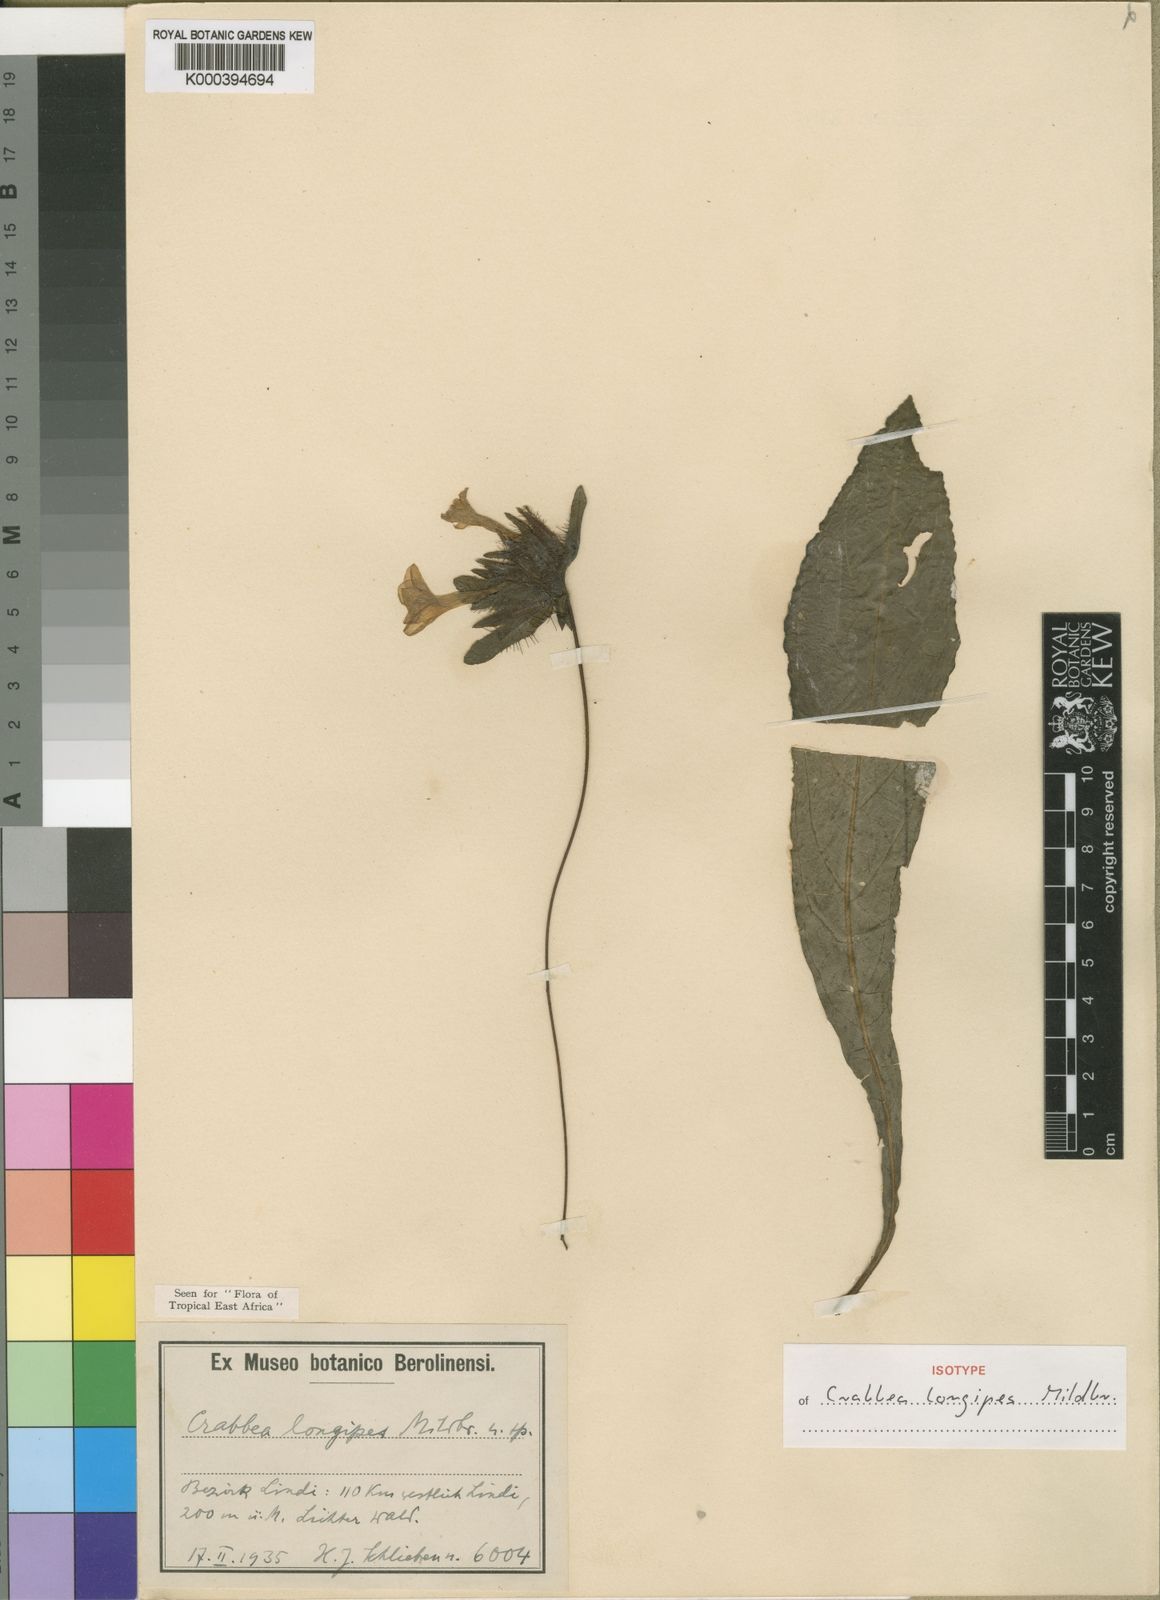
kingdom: Plantae
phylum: Tracheophyta
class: Magnoliopsida
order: Lamiales
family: Acanthaceae
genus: Crabbea
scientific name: Crabbea longipes
